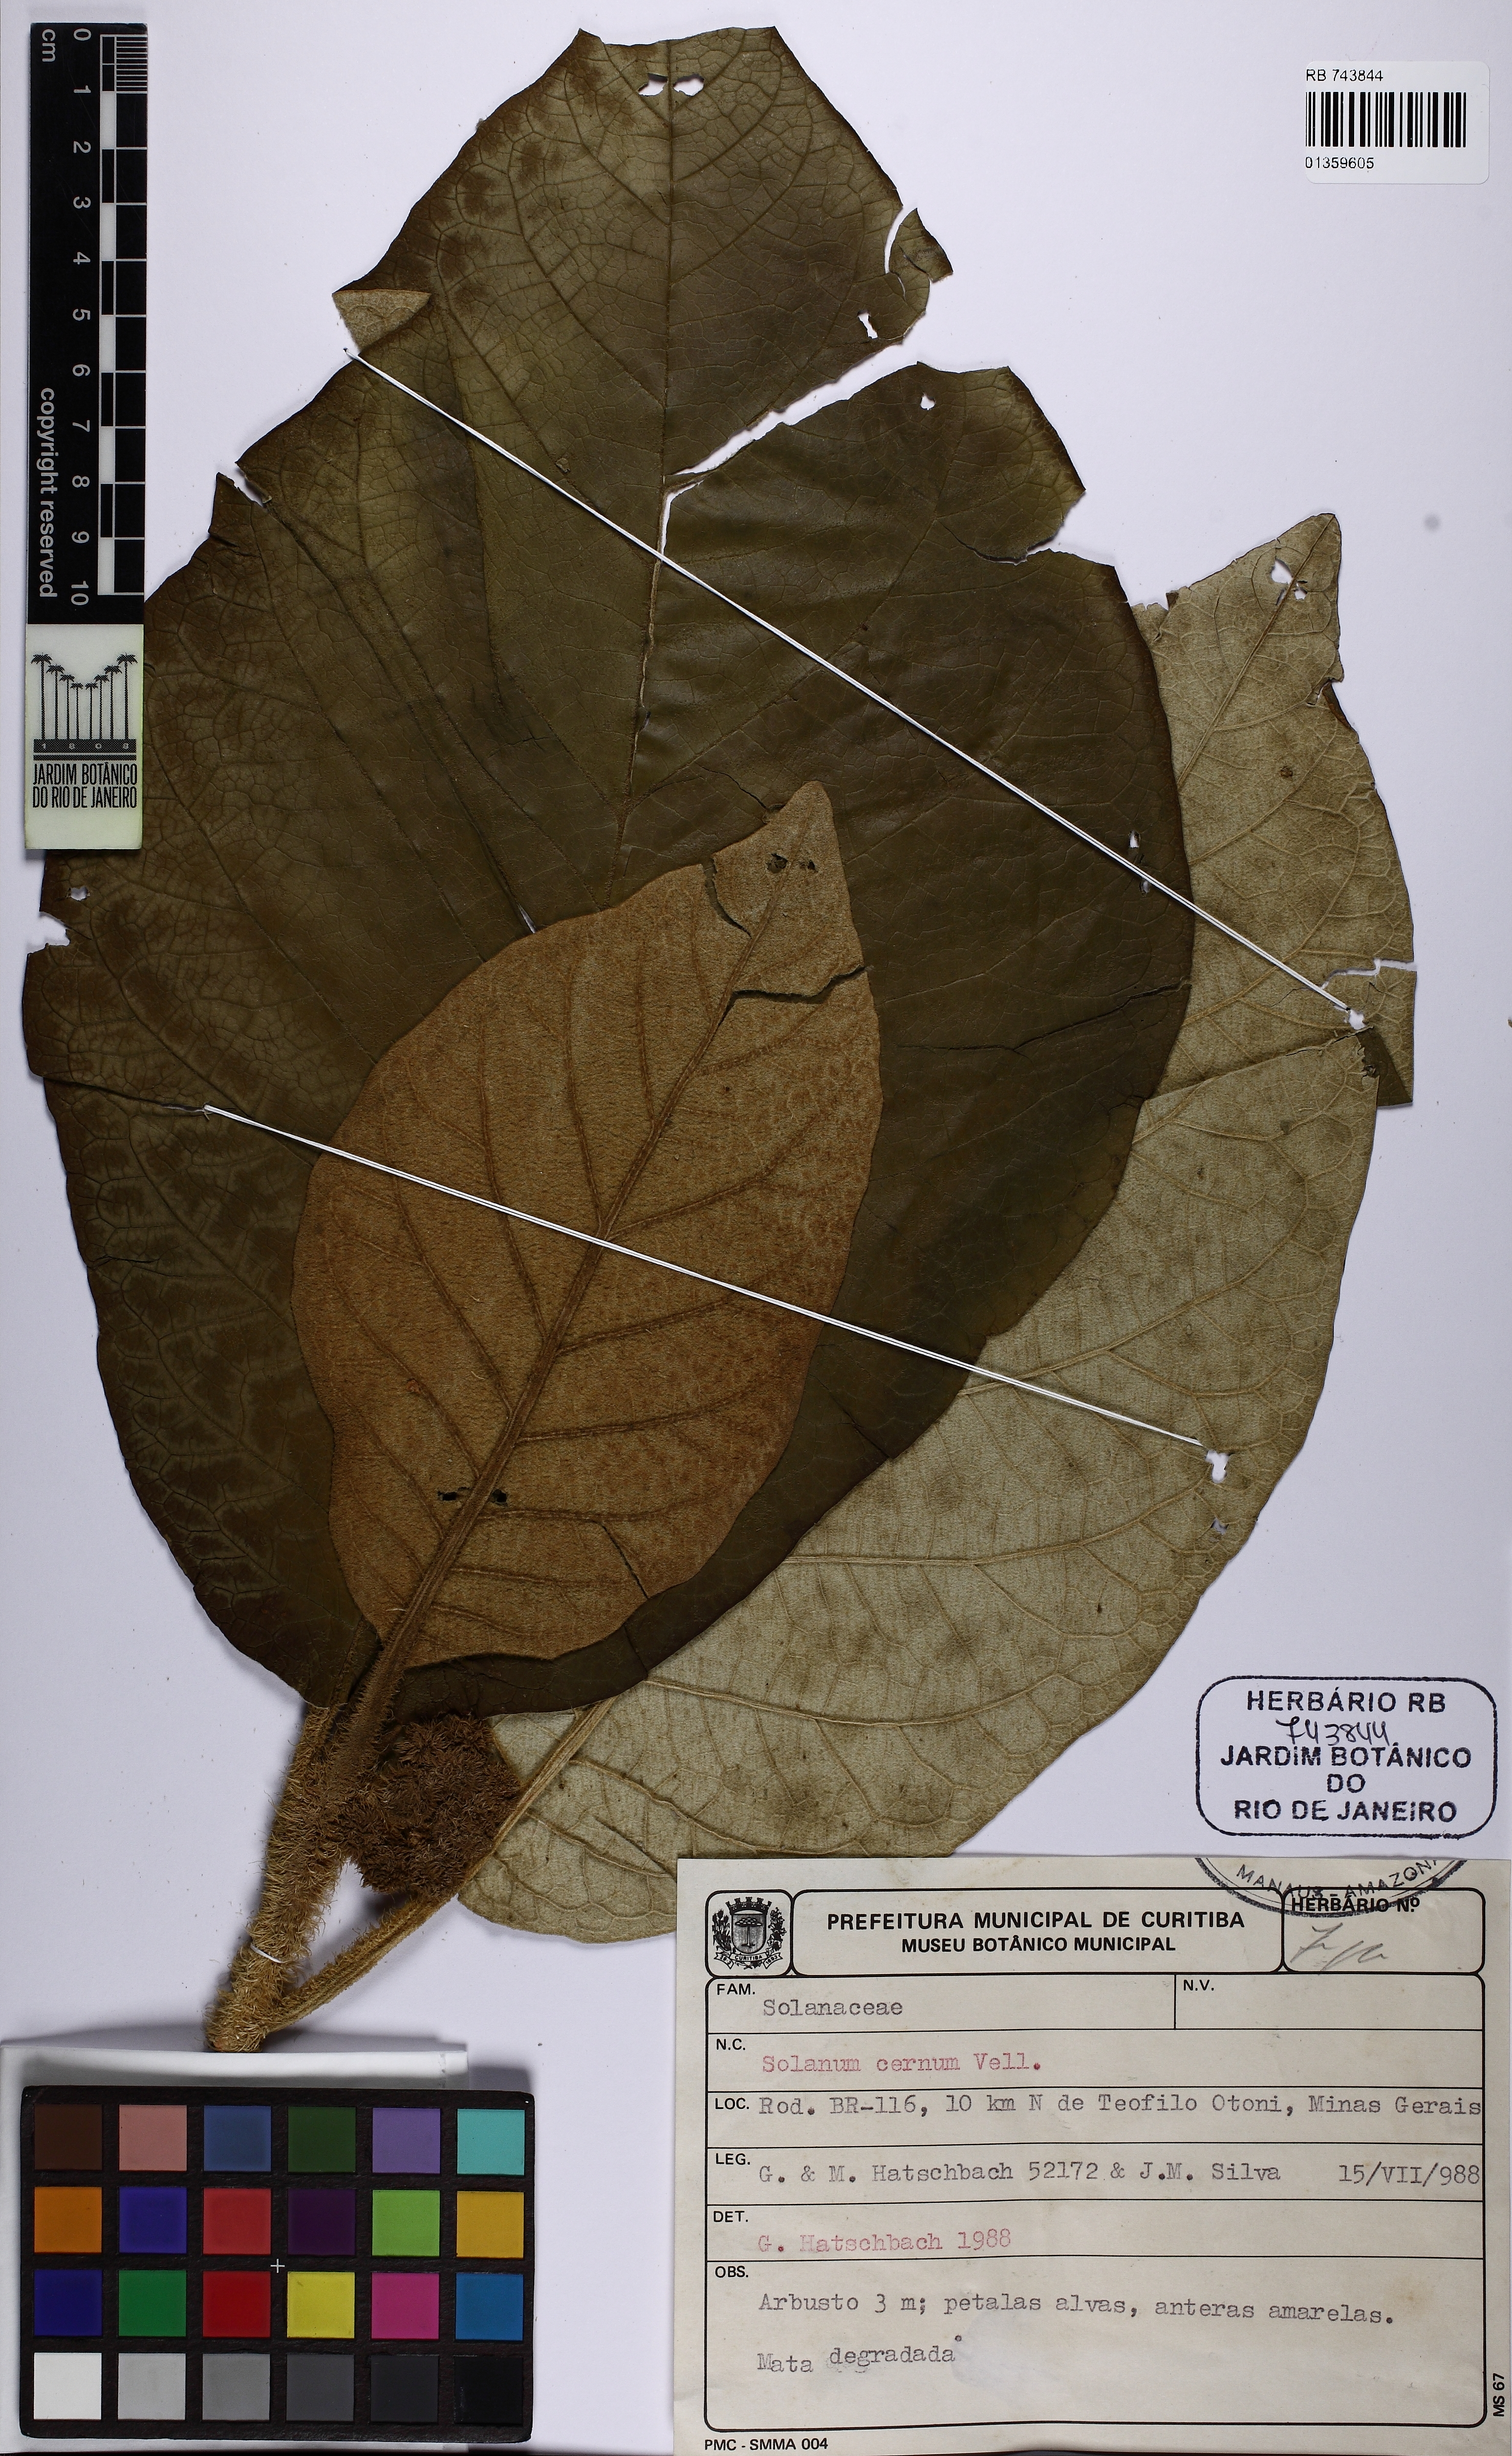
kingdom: Plantae
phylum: Tracheophyta
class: Magnoliopsida
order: Solanales
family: Solanaceae
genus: Solanum
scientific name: Solanum cernuum
